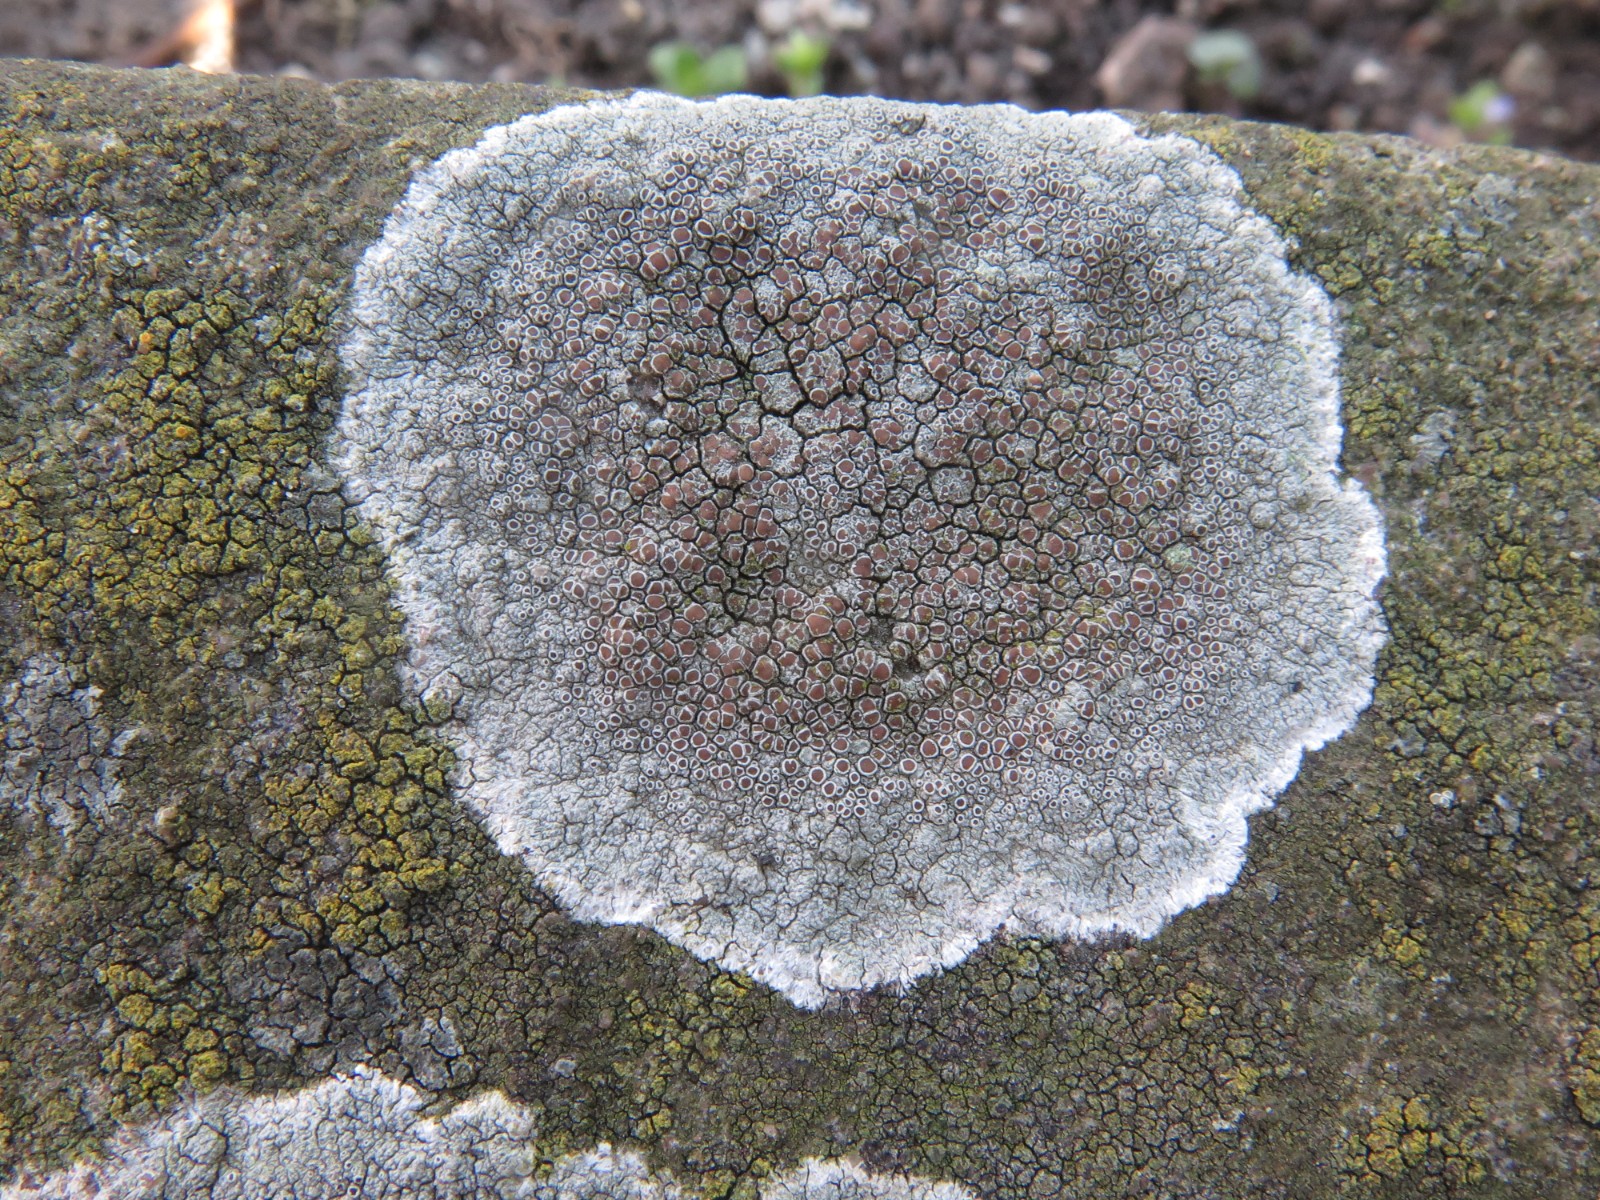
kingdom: Fungi
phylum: Ascomycota
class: Lecanoromycetes
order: Lecanorales
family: Lecanoraceae
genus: Lecanora
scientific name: Lecanora campestris
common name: mur-kantskivelav
